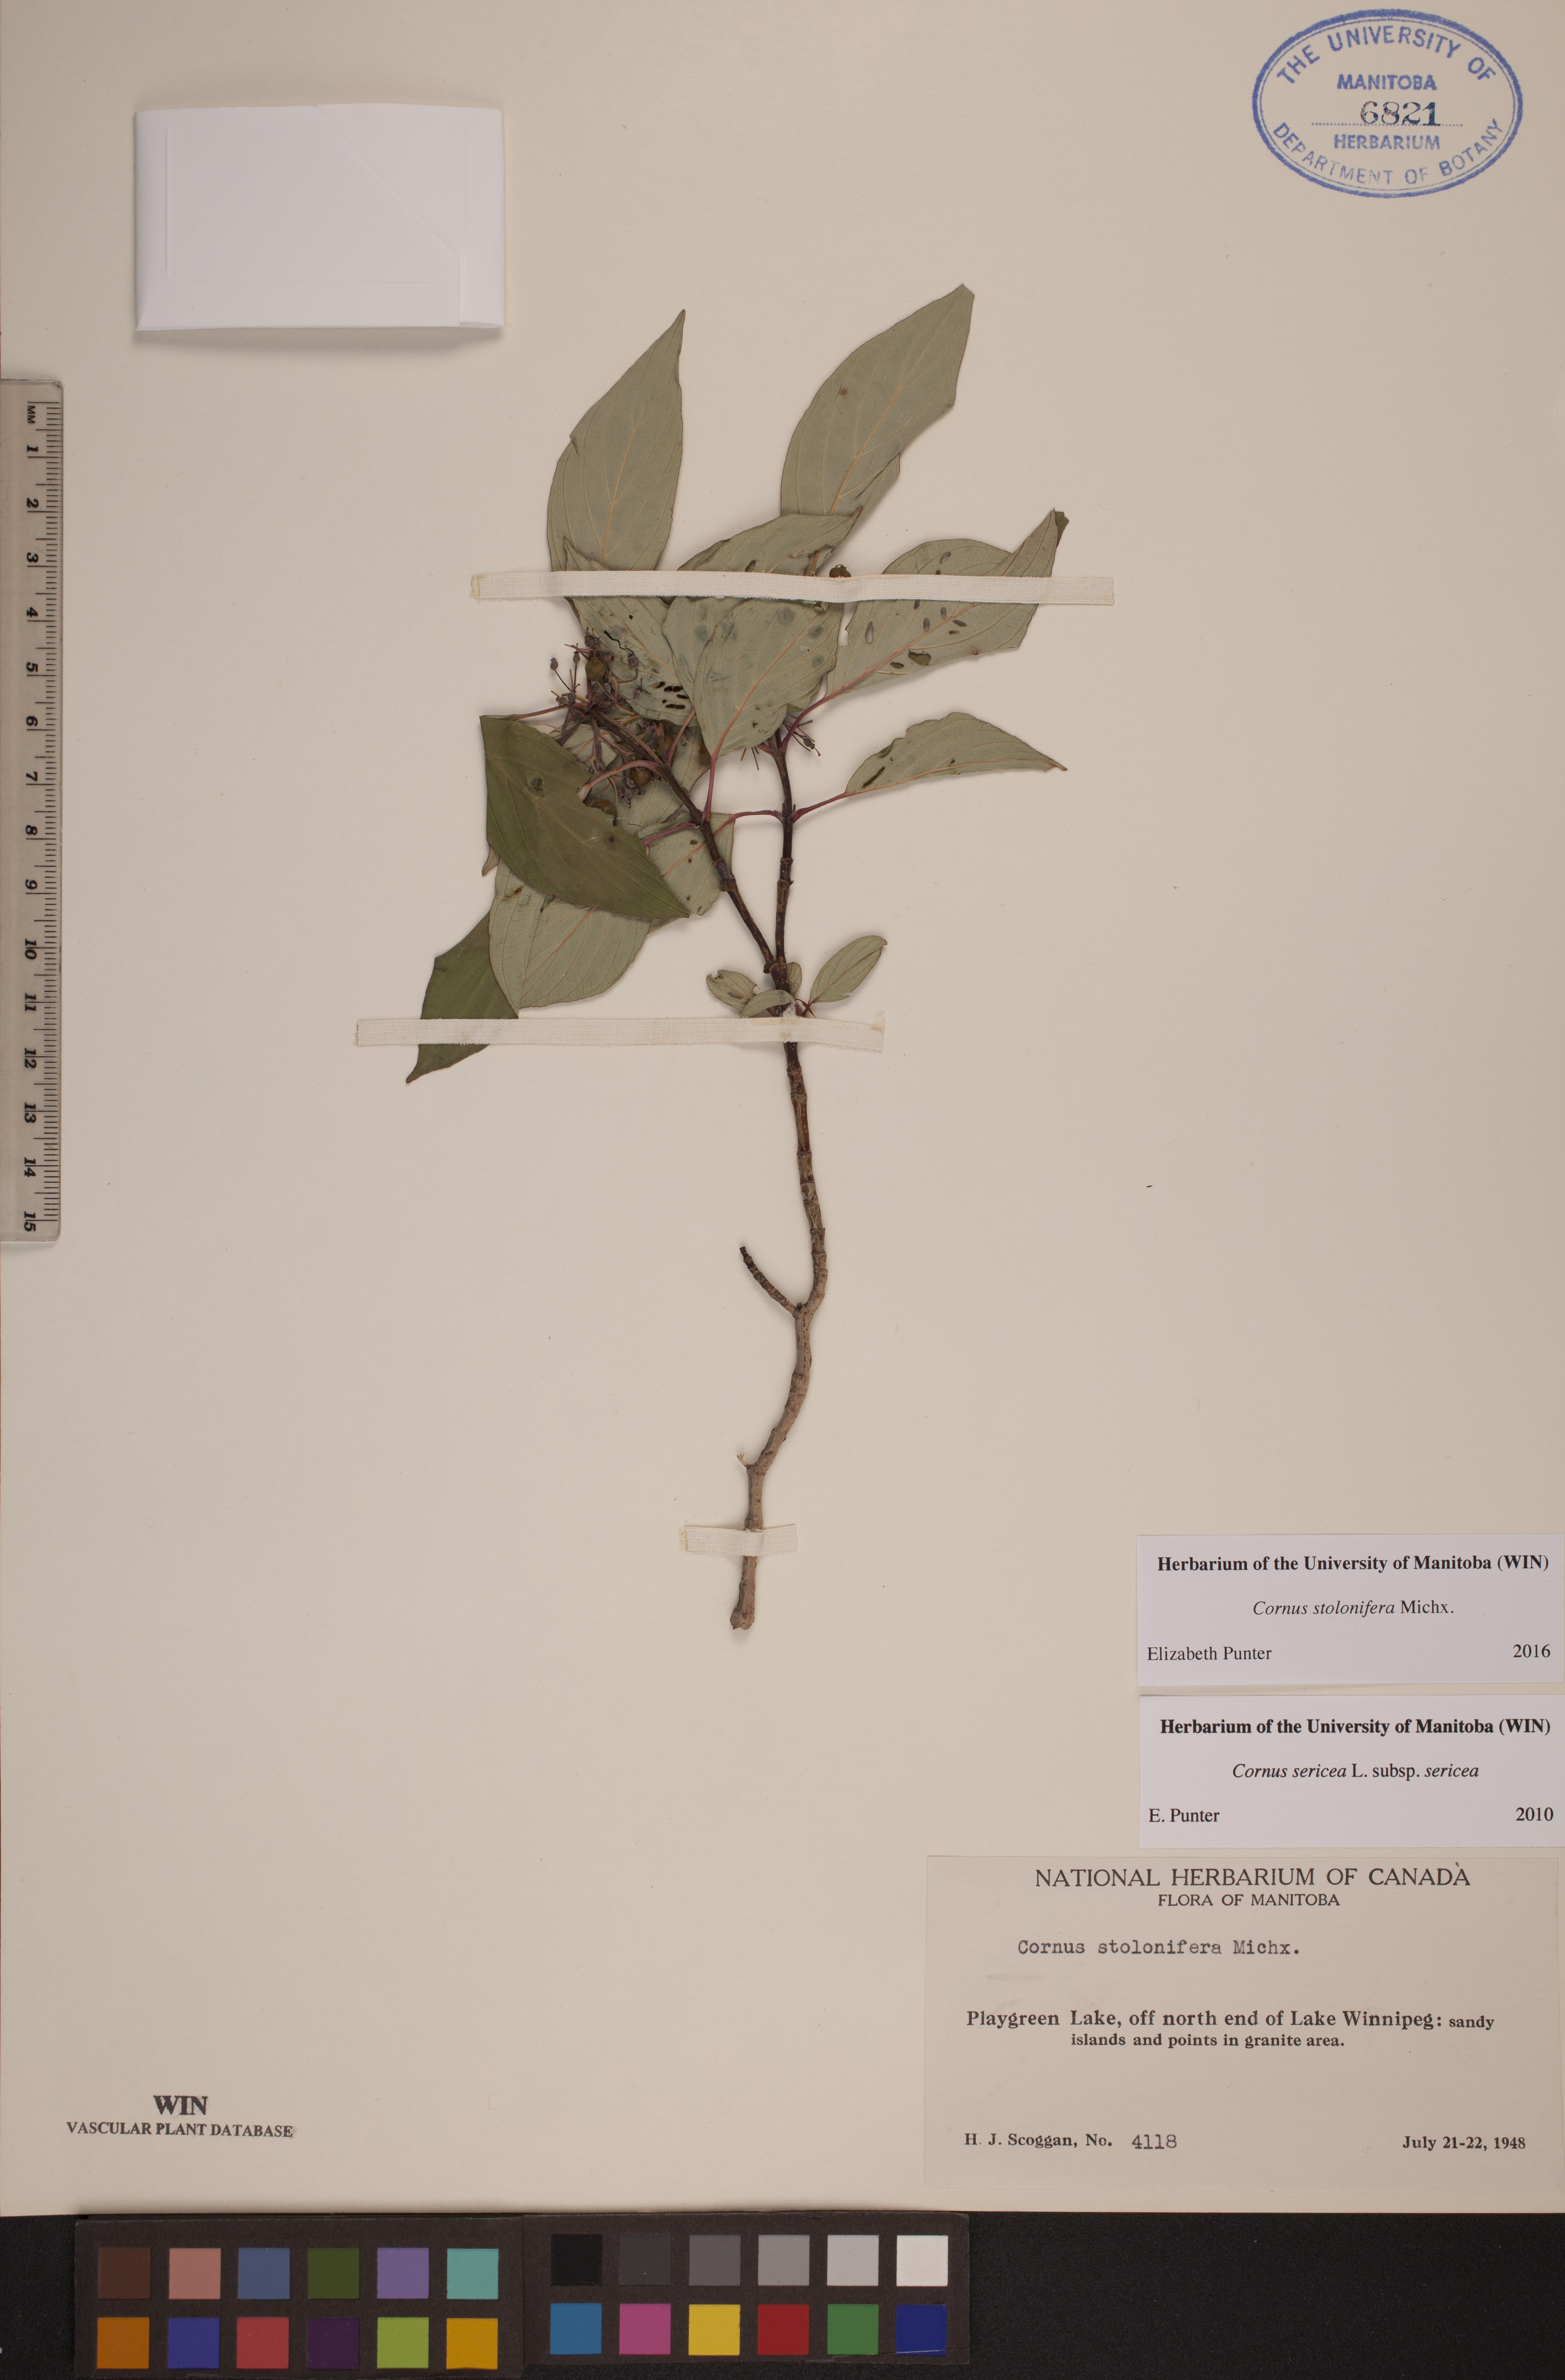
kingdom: Plantae
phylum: Tracheophyta
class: Magnoliopsida
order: Cornales
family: Cornaceae
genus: Cornus
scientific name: Cornus sericea
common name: Red-osier dogwood
